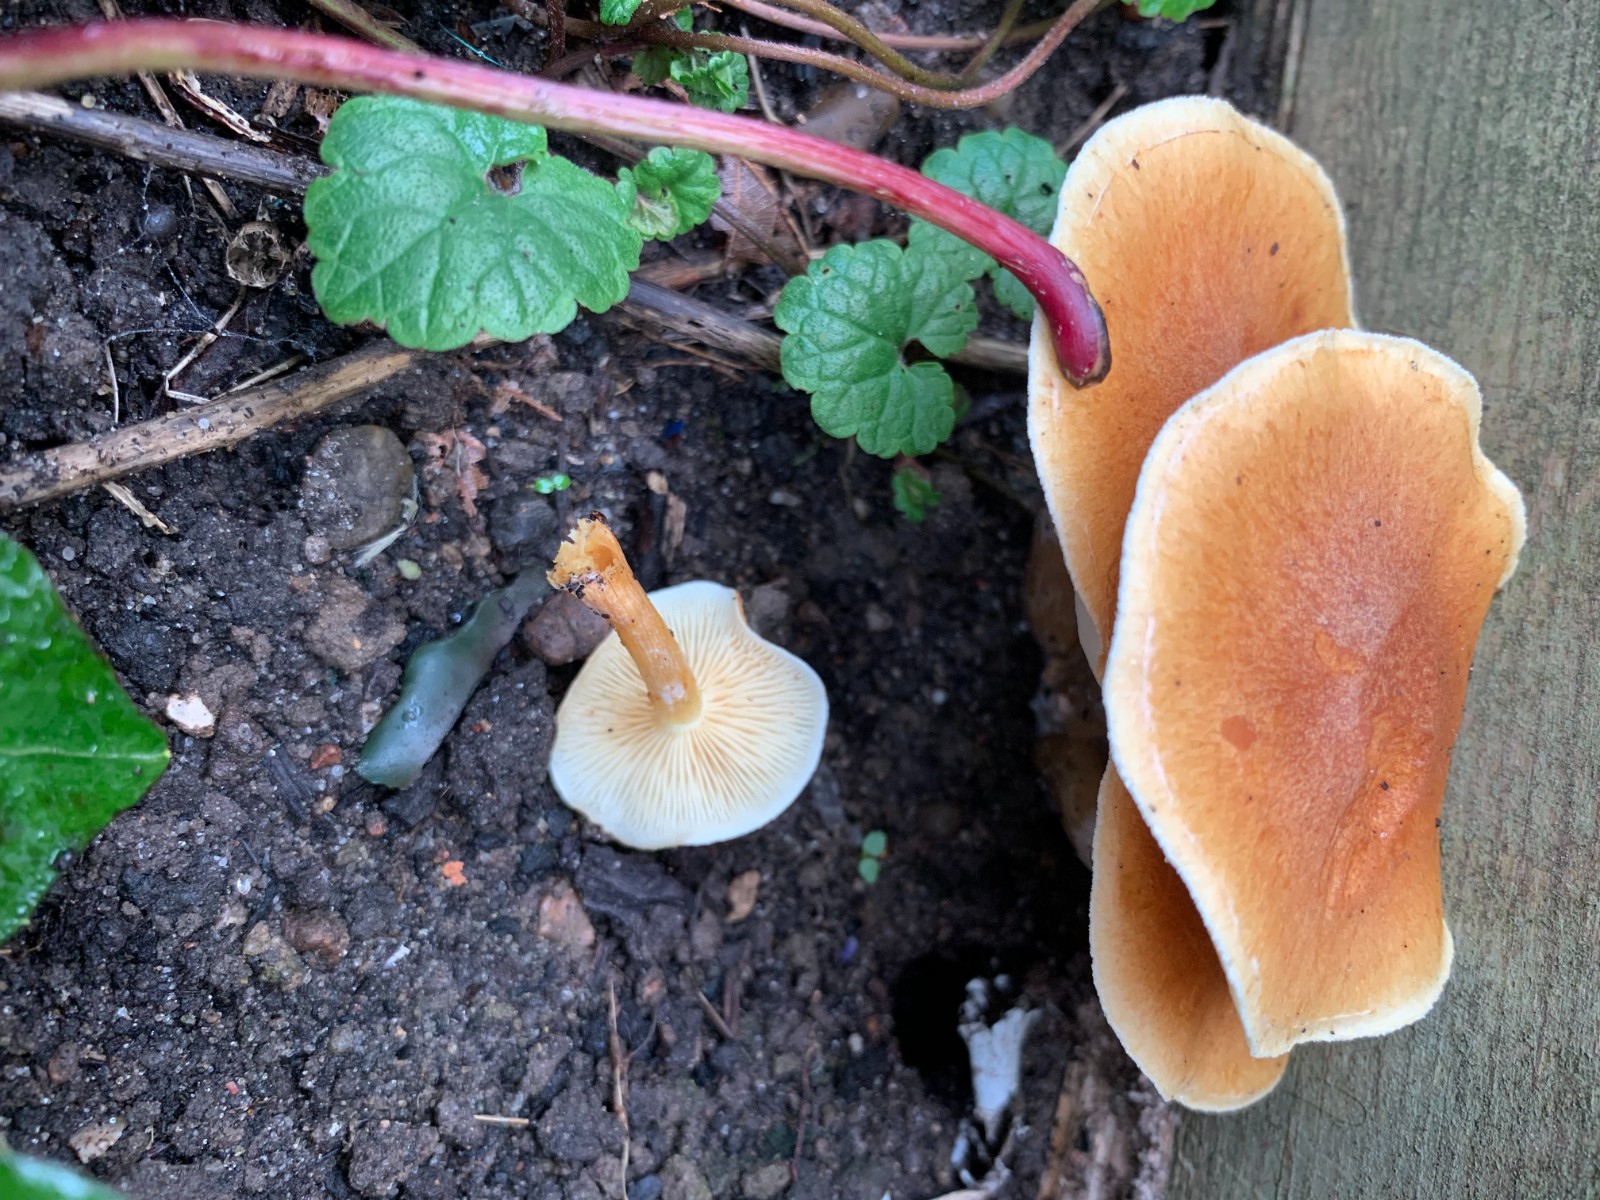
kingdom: Fungi
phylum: Basidiomycota
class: Agaricomycetes
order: Agaricales
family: Hymenogastraceae
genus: Gymnopilus
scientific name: Gymnopilus penetrans
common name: plettet flammehat
